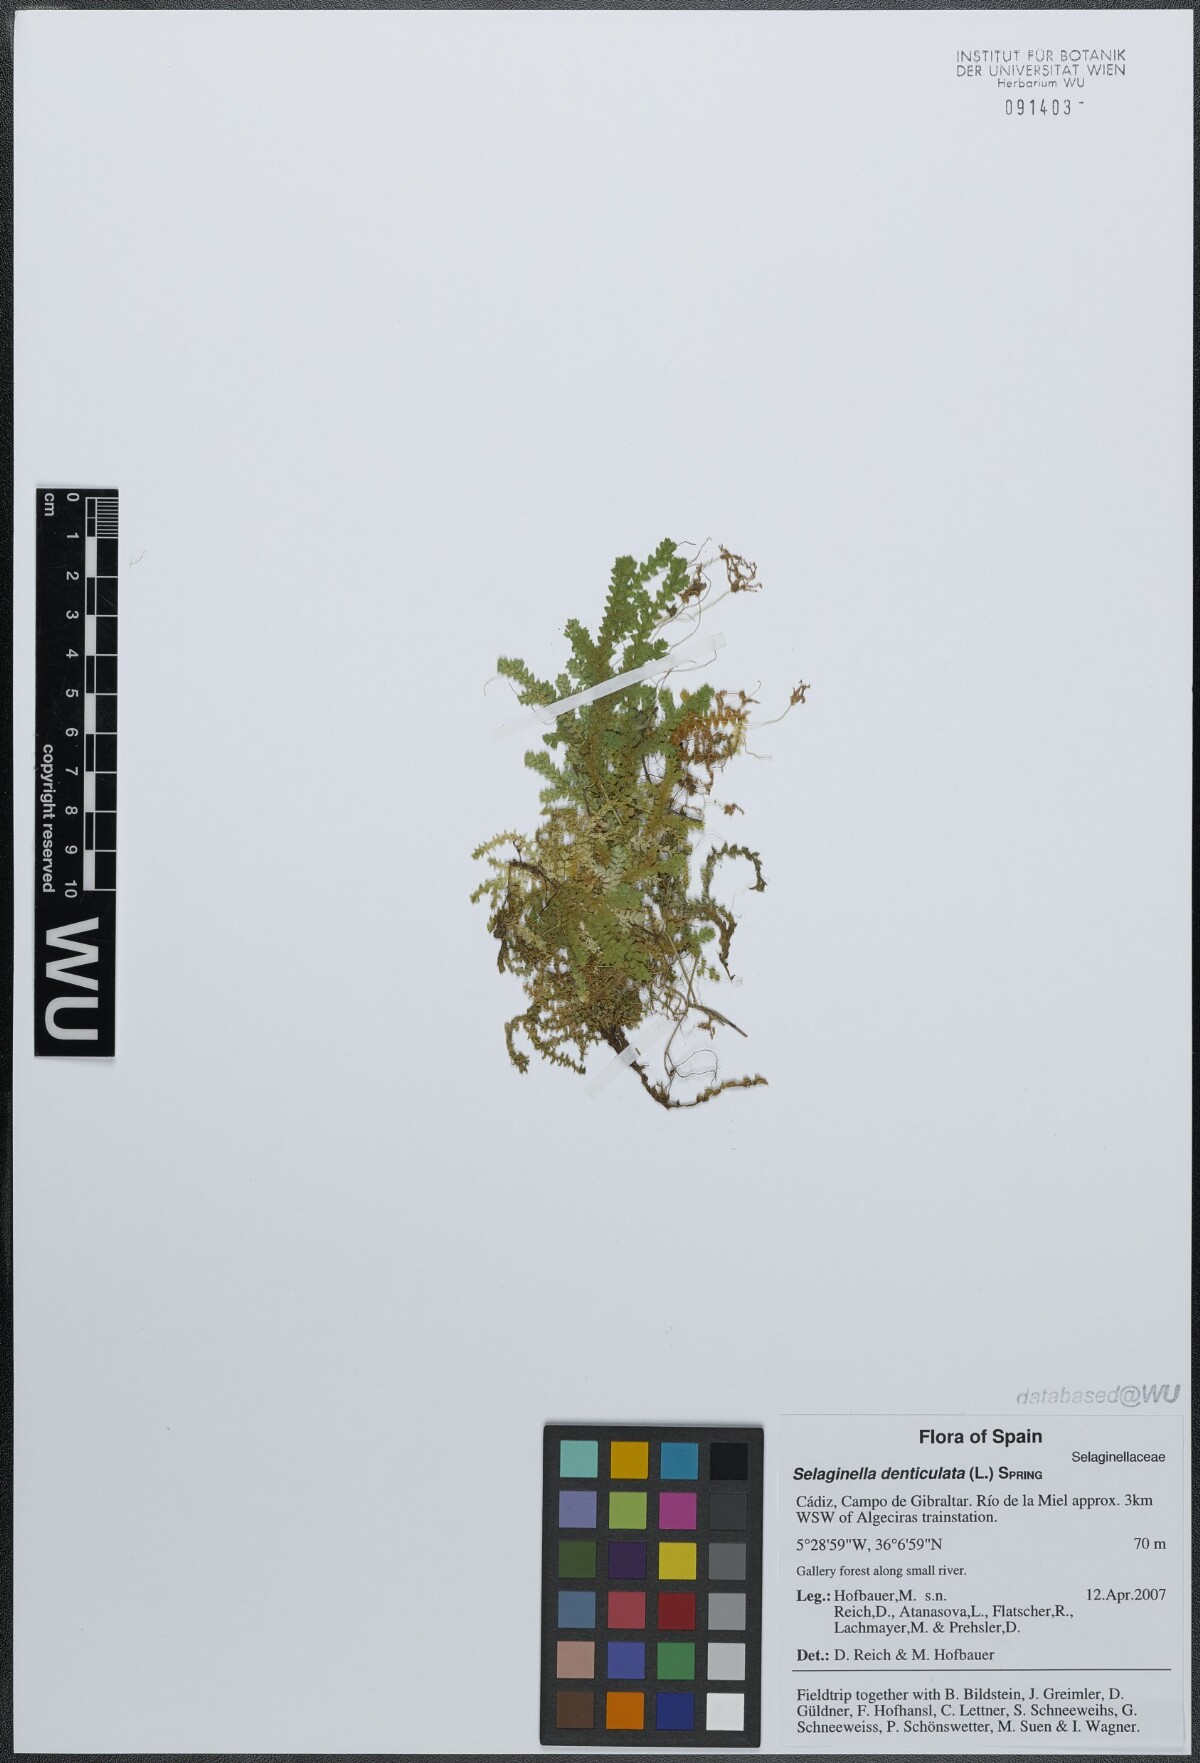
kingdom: Plantae
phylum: Tracheophyta
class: Lycopodiopsida
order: Selaginellales
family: Selaginellaceae
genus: Selaginella
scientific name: Selaginella denticulata
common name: Toothed-leaved clubmoss
